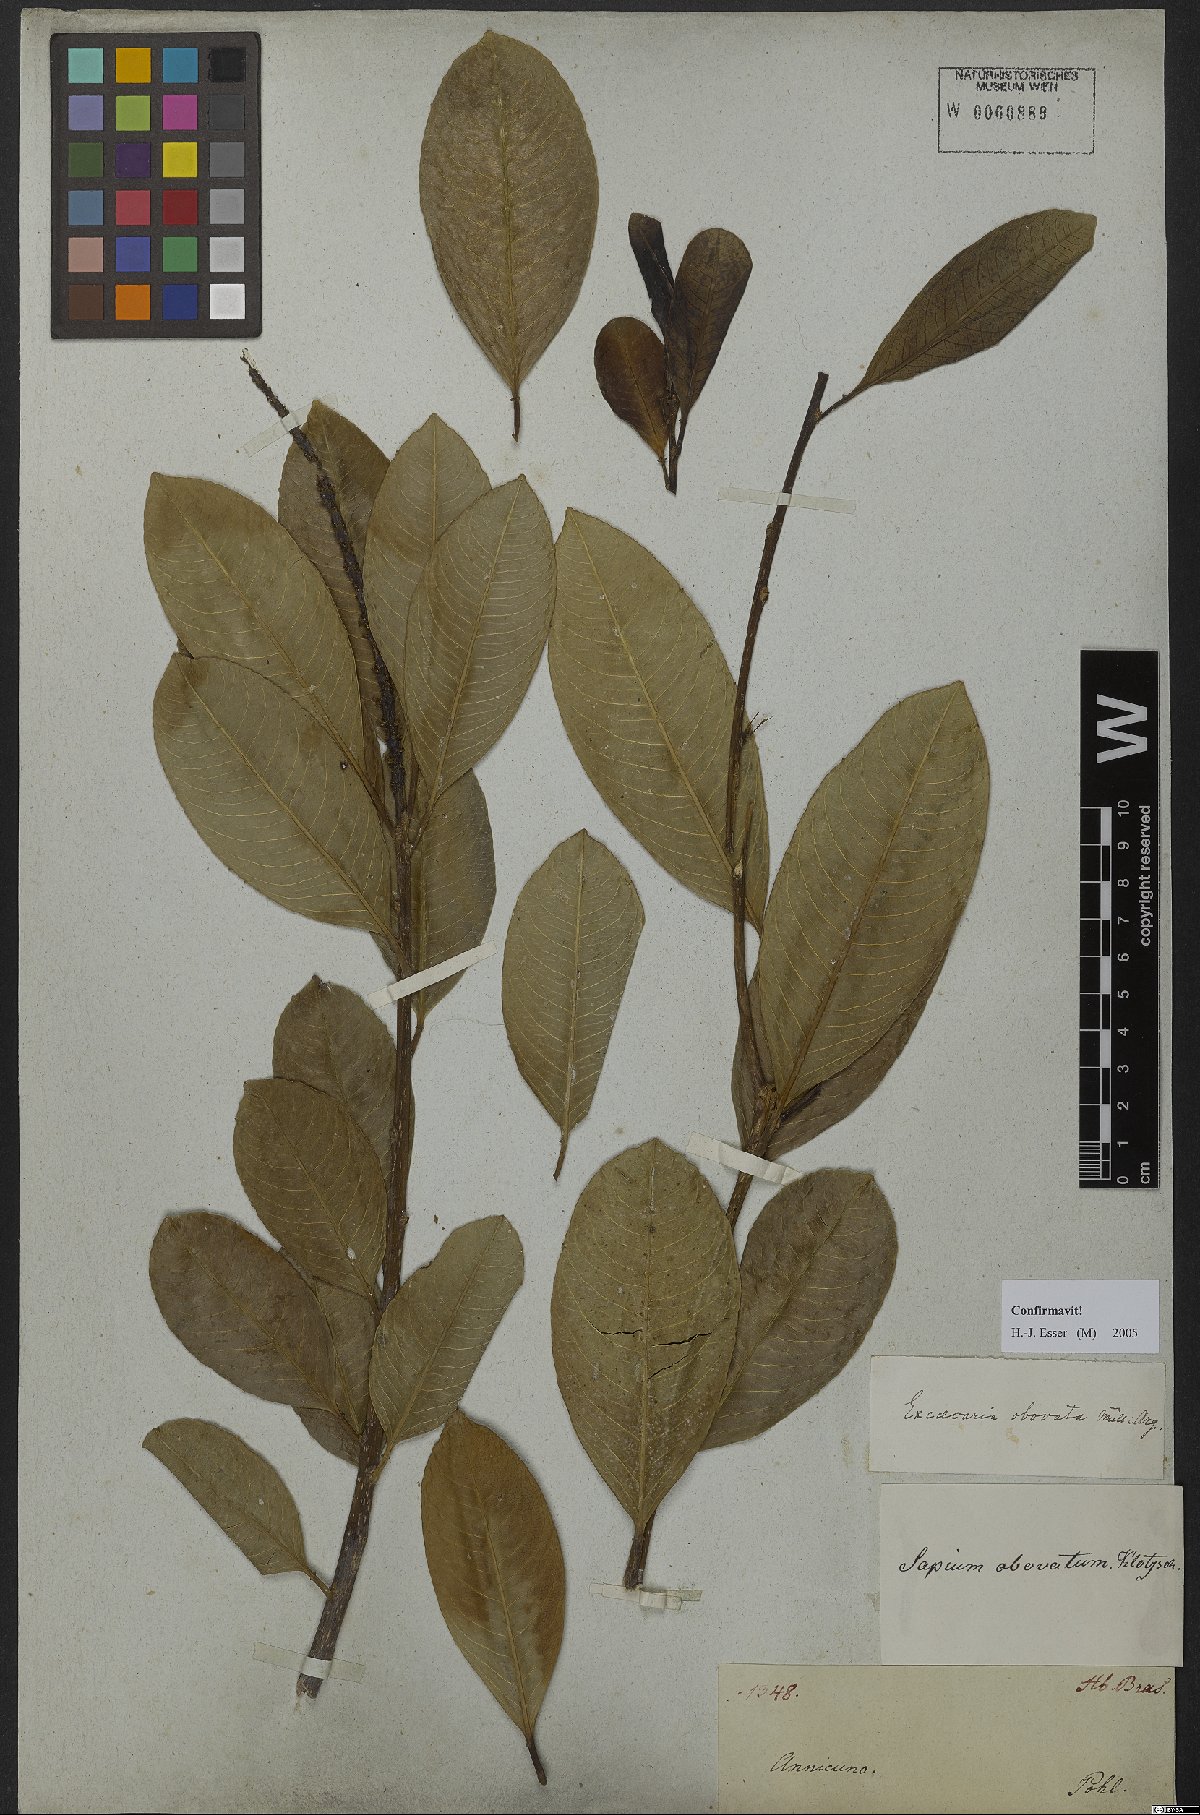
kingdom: Plantae
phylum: Tracheophyta
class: Magnoliopsida
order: Malpighiales
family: Euphorbiaceae
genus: Sapium
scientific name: Sapium obovatum
